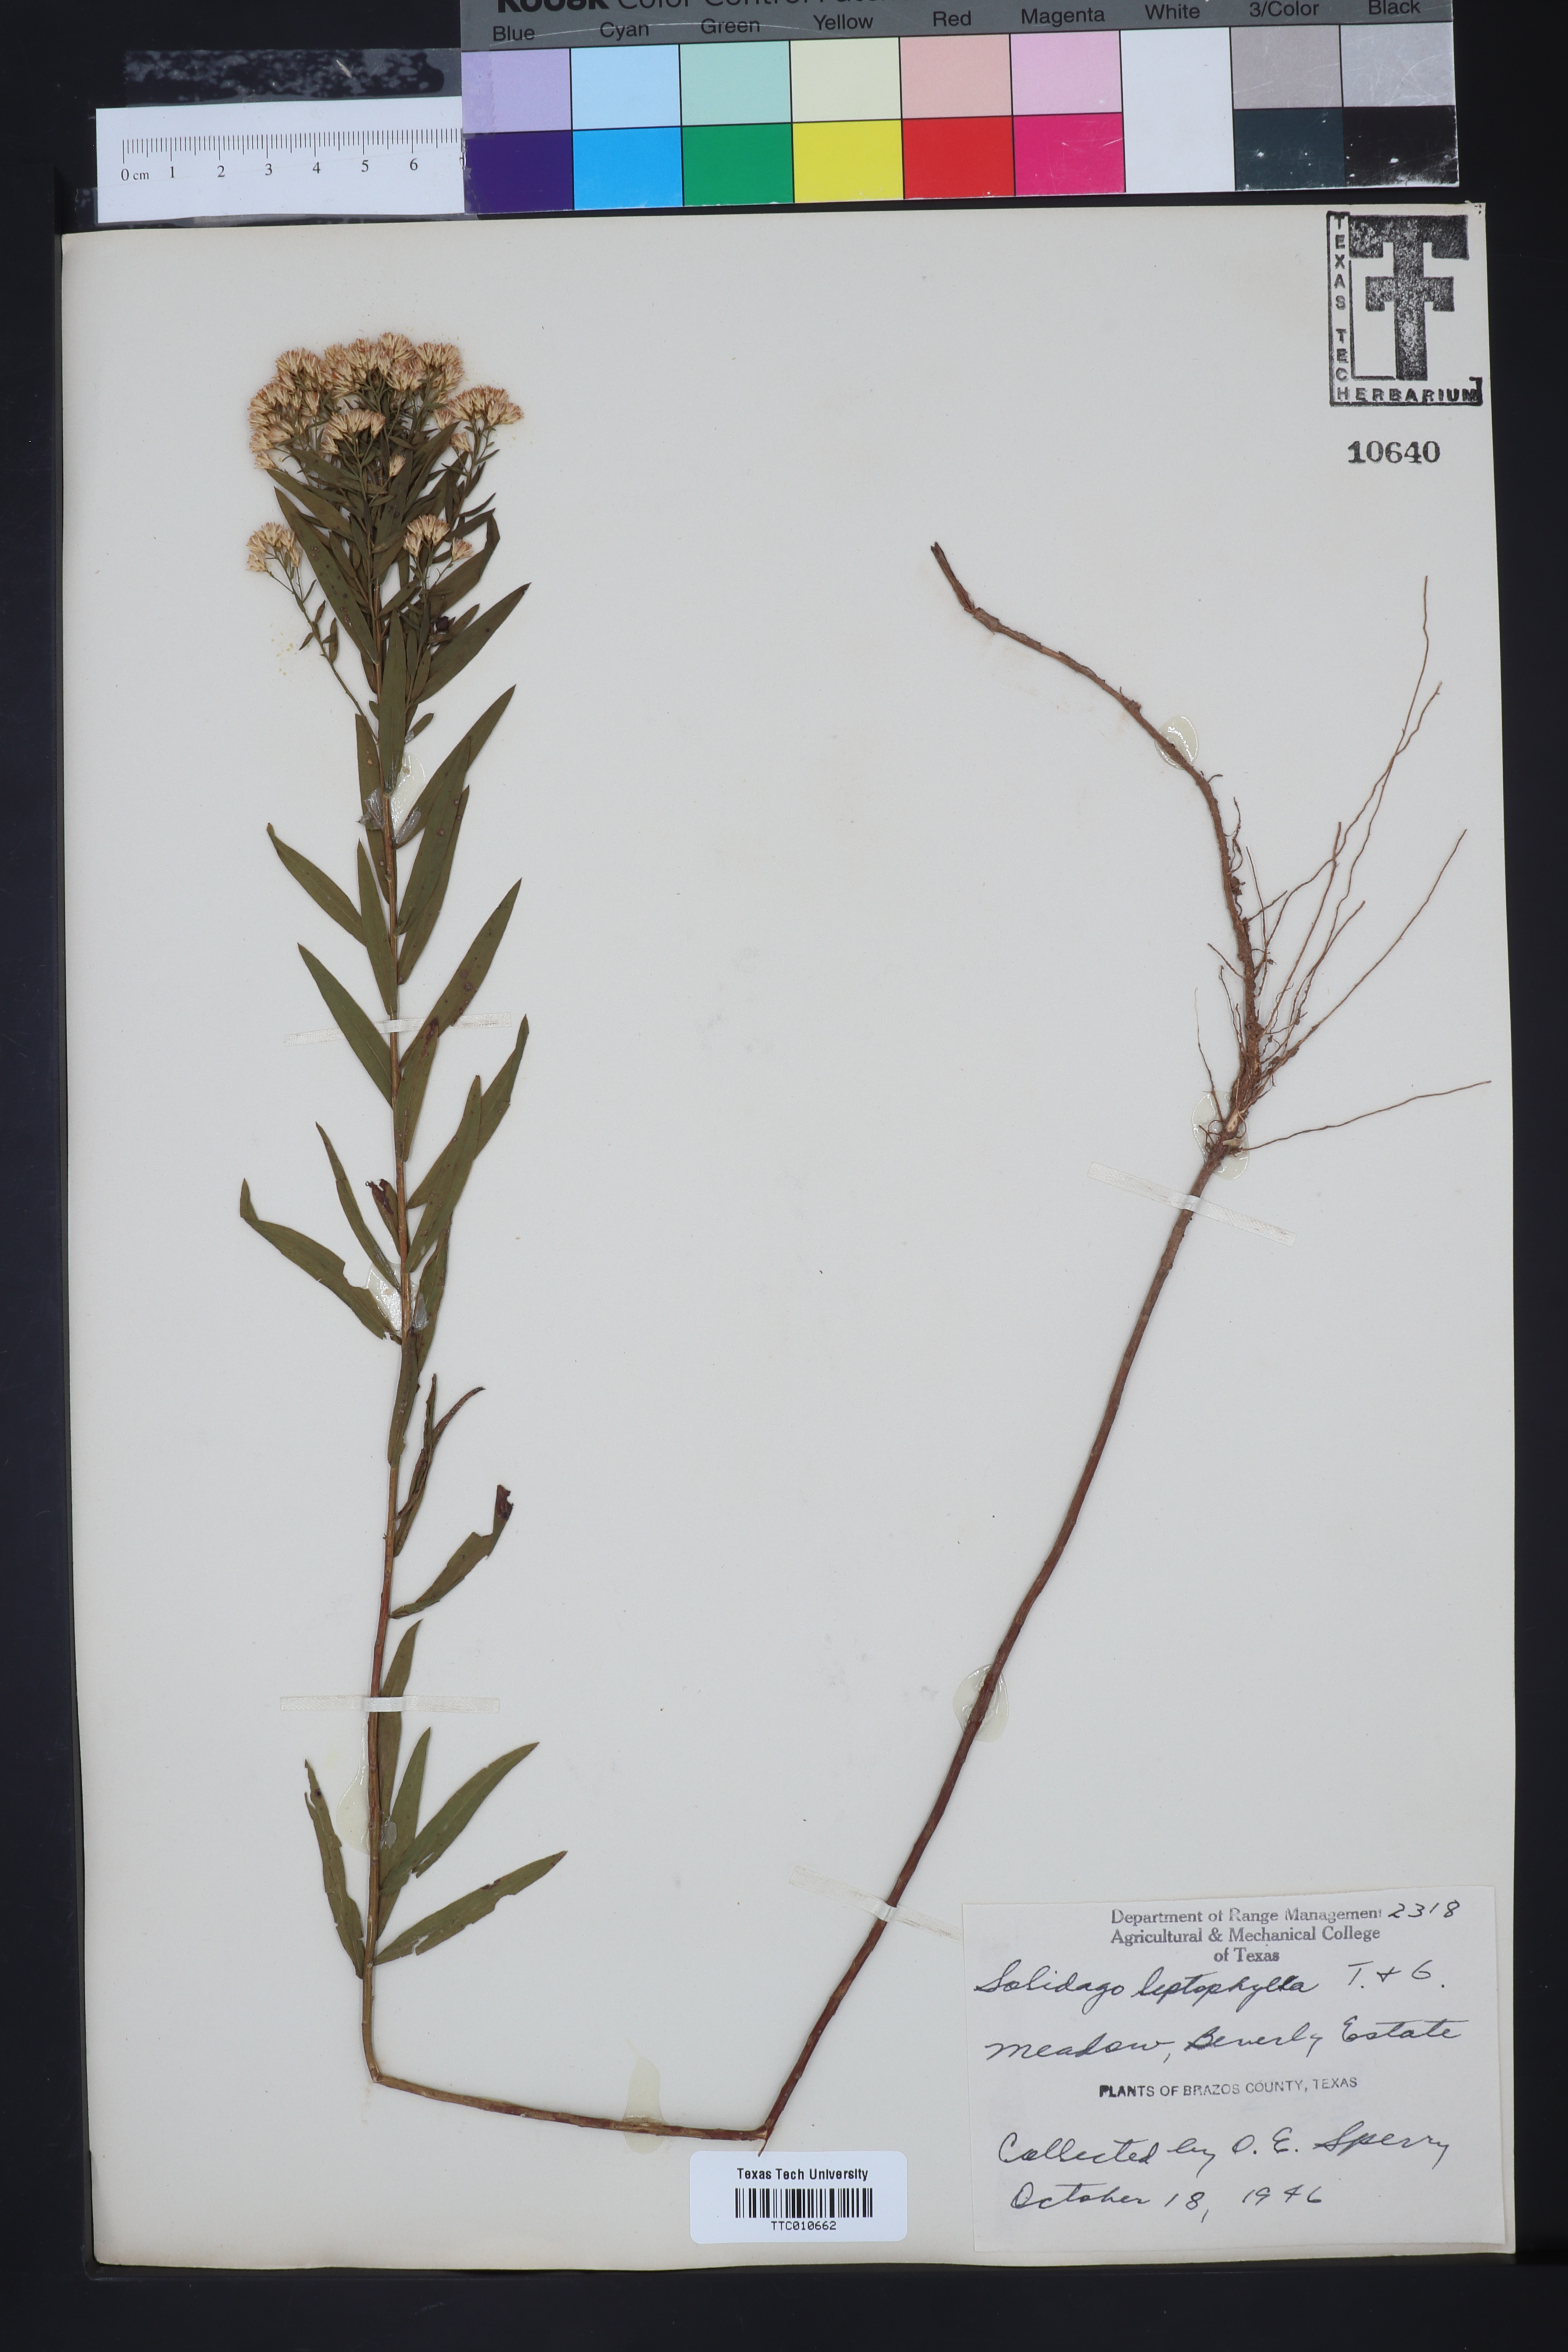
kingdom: Plantae
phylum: Tracheophyta
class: Magnoliopsida
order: Asterales
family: Asteraceae
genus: Solidago
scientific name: Solidago
